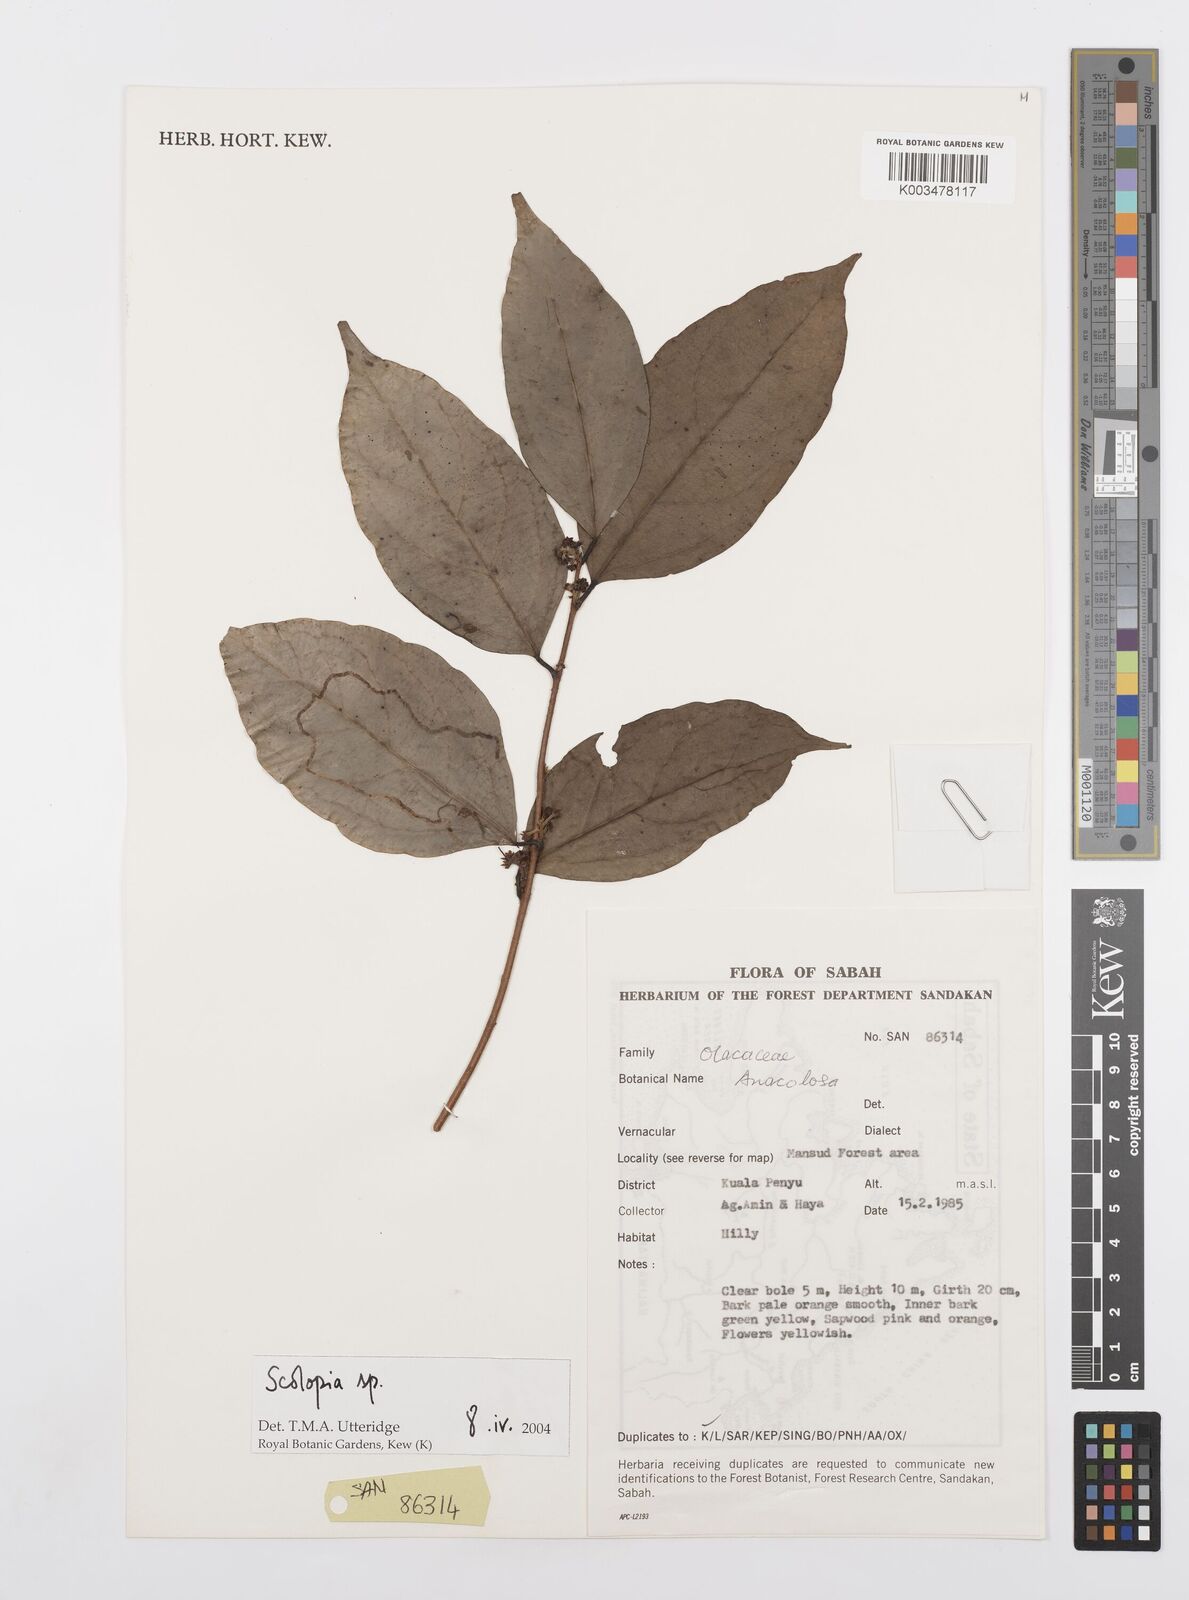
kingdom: Plantae
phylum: Tracheophyta
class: Magnoliopsida
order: Malpighiales
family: Salicaceae
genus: Scolopia
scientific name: Scolopia
